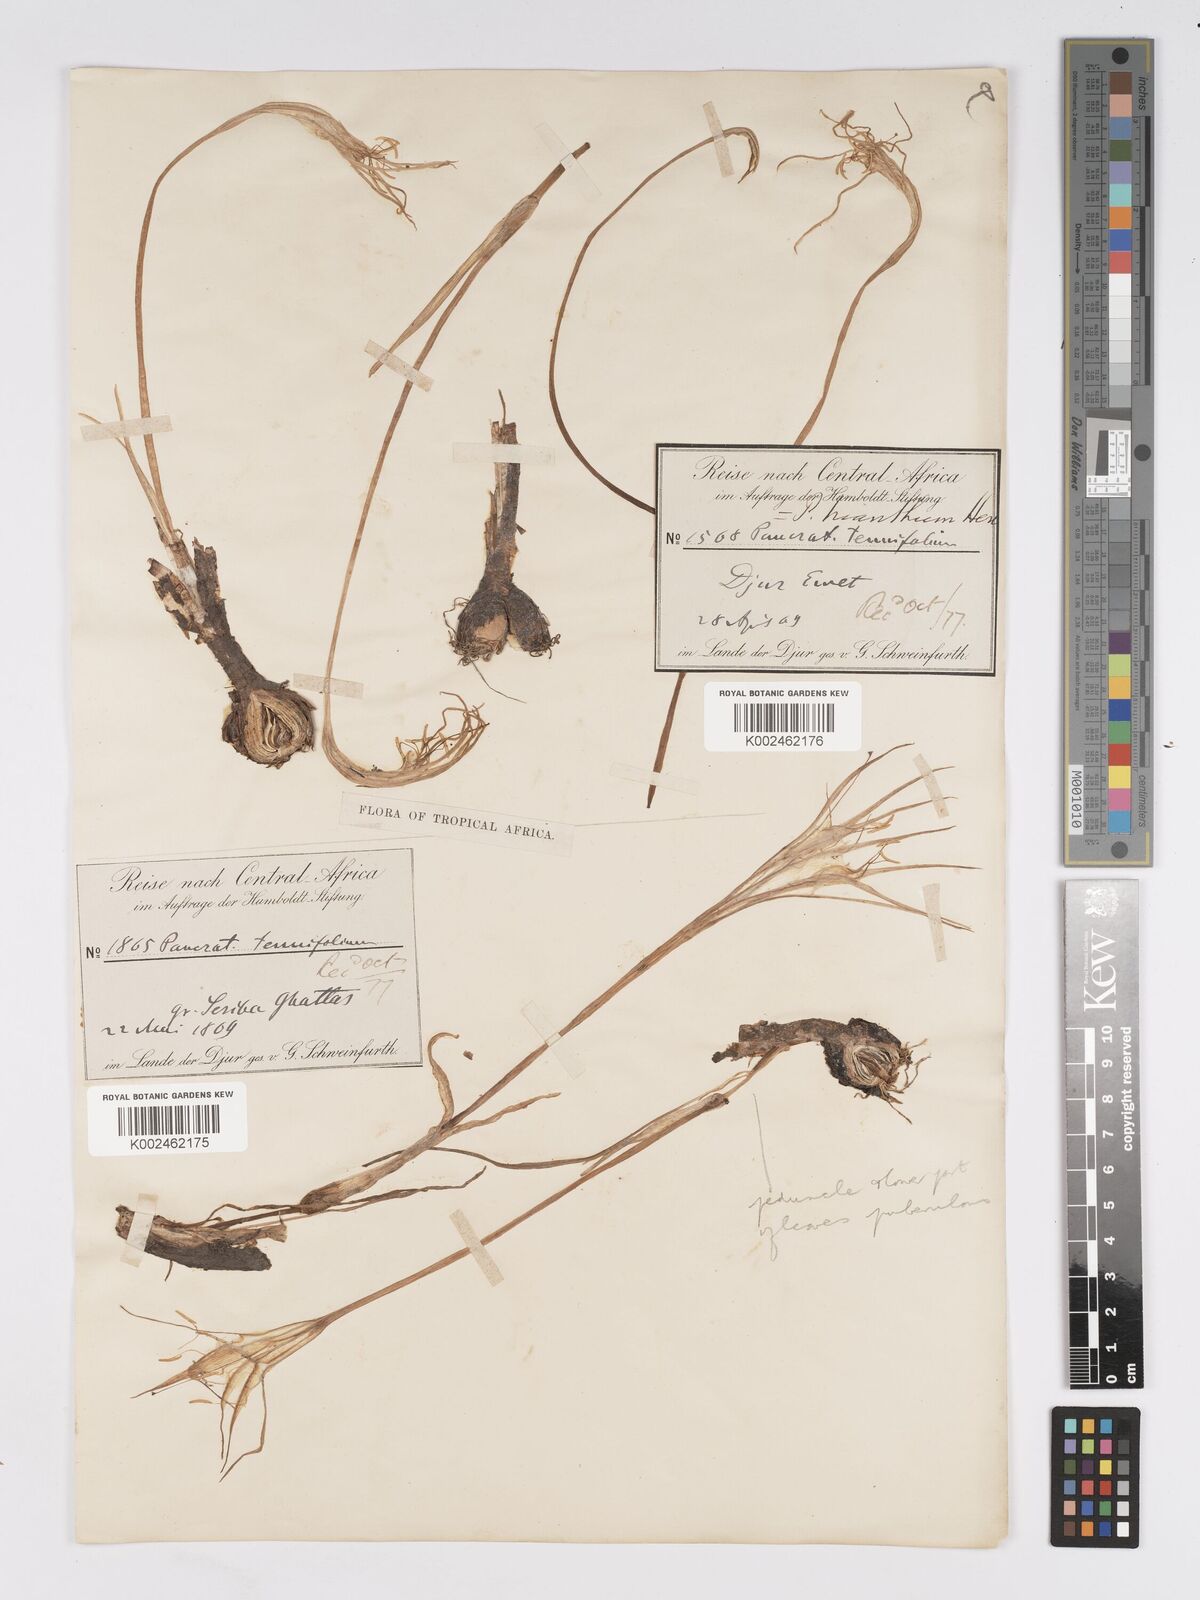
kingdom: Plantae
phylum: Tracheophyta
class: Liliopsida
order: Asparagales
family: Amaryllidaceae
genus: Pancratium
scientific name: Pancratium trianthum
